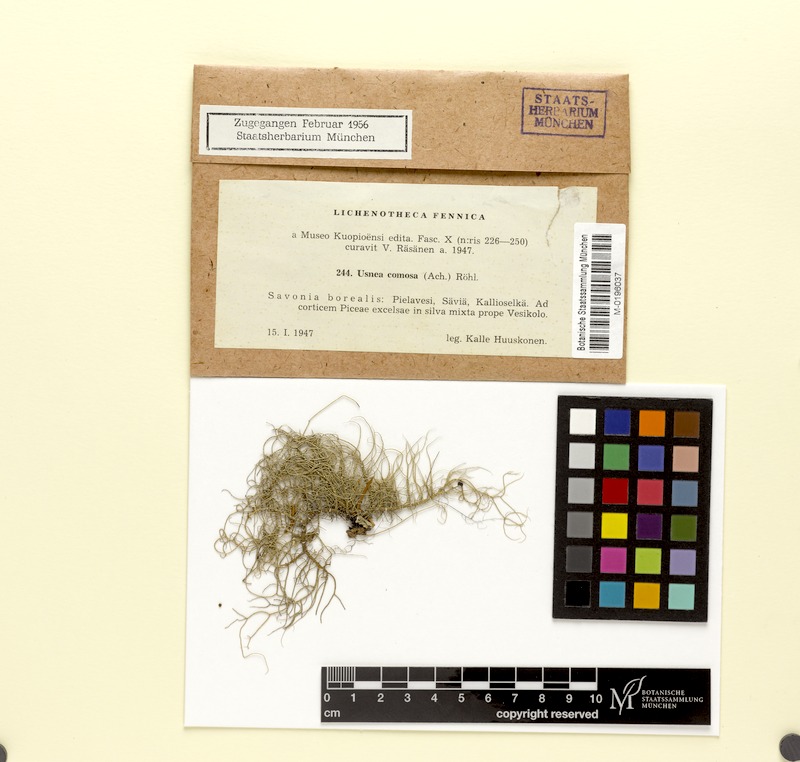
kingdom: Fungi
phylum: Ascomycota
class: Lecanoromycetes
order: Lecanorales
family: Parmeliaceae
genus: Usnea
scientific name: Usnea subfloridana
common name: Boreal beard lichen
